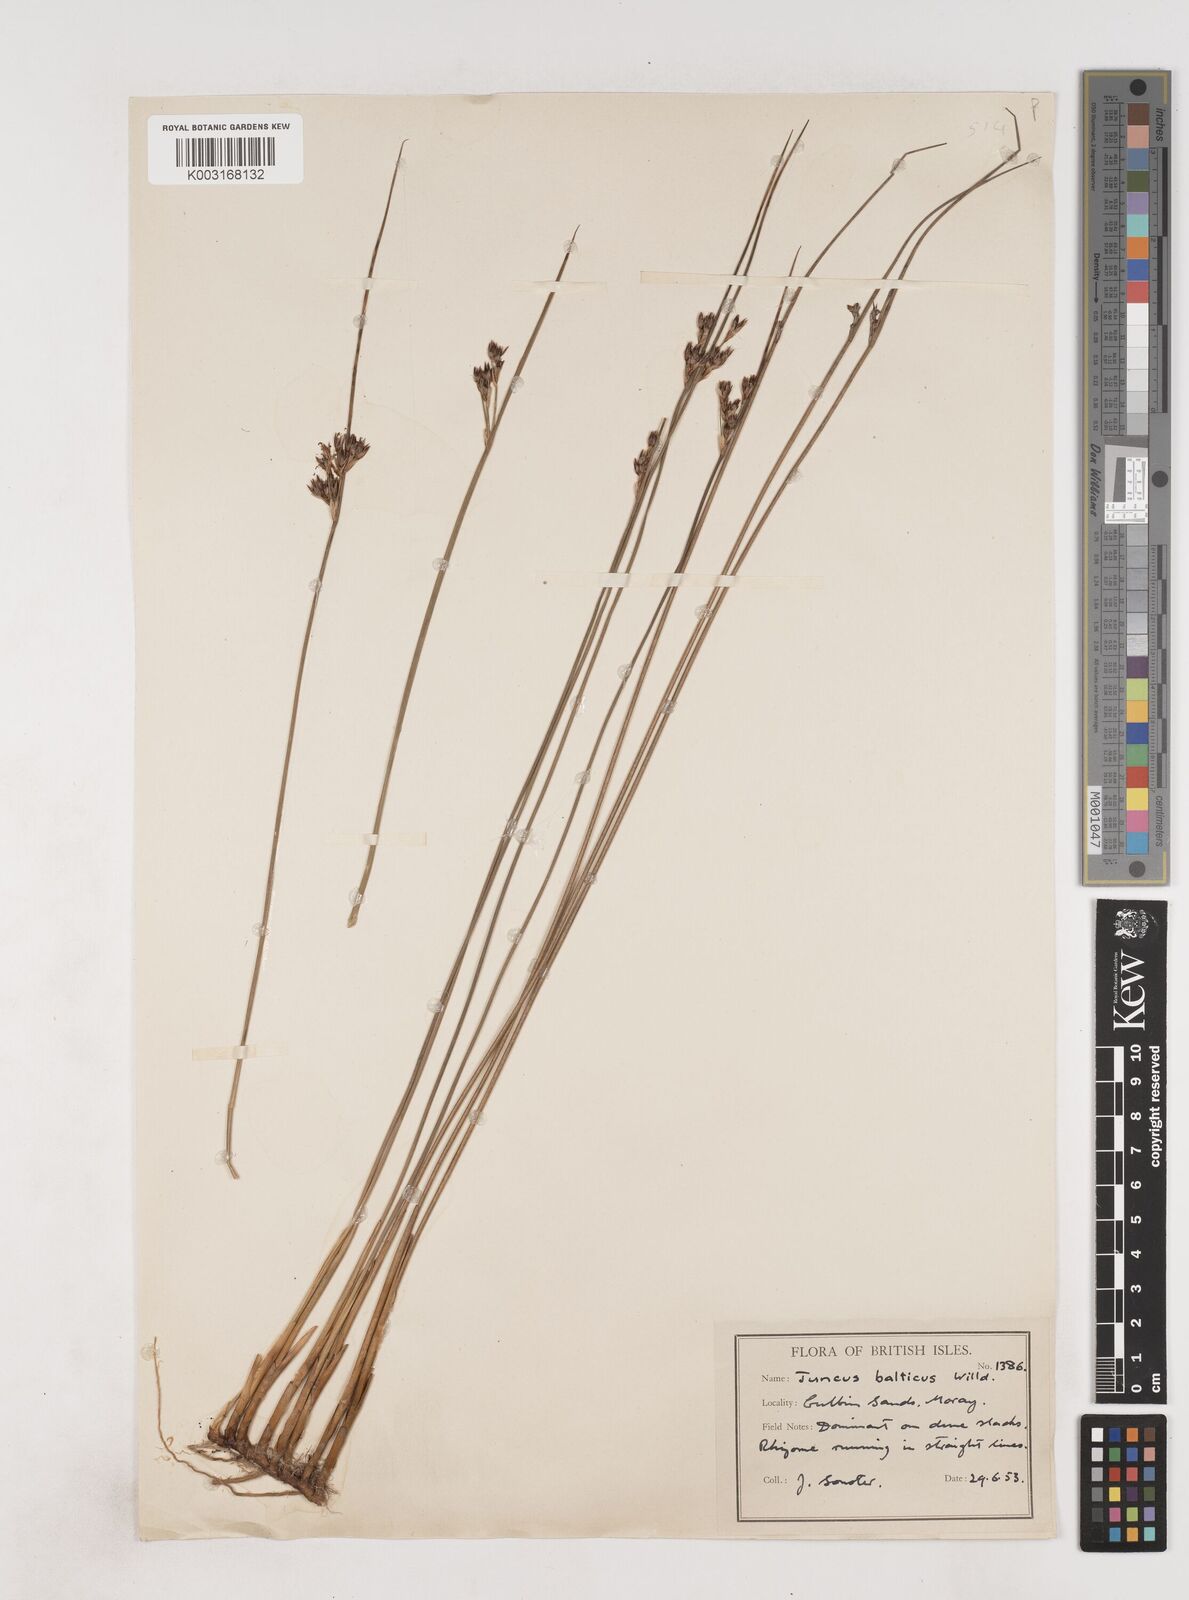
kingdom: Plantae
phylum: Tracheophyta
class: Liliopsida
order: Poales
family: Juncaceae
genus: Juncus
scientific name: Juncus balticus
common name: Baltic rush
